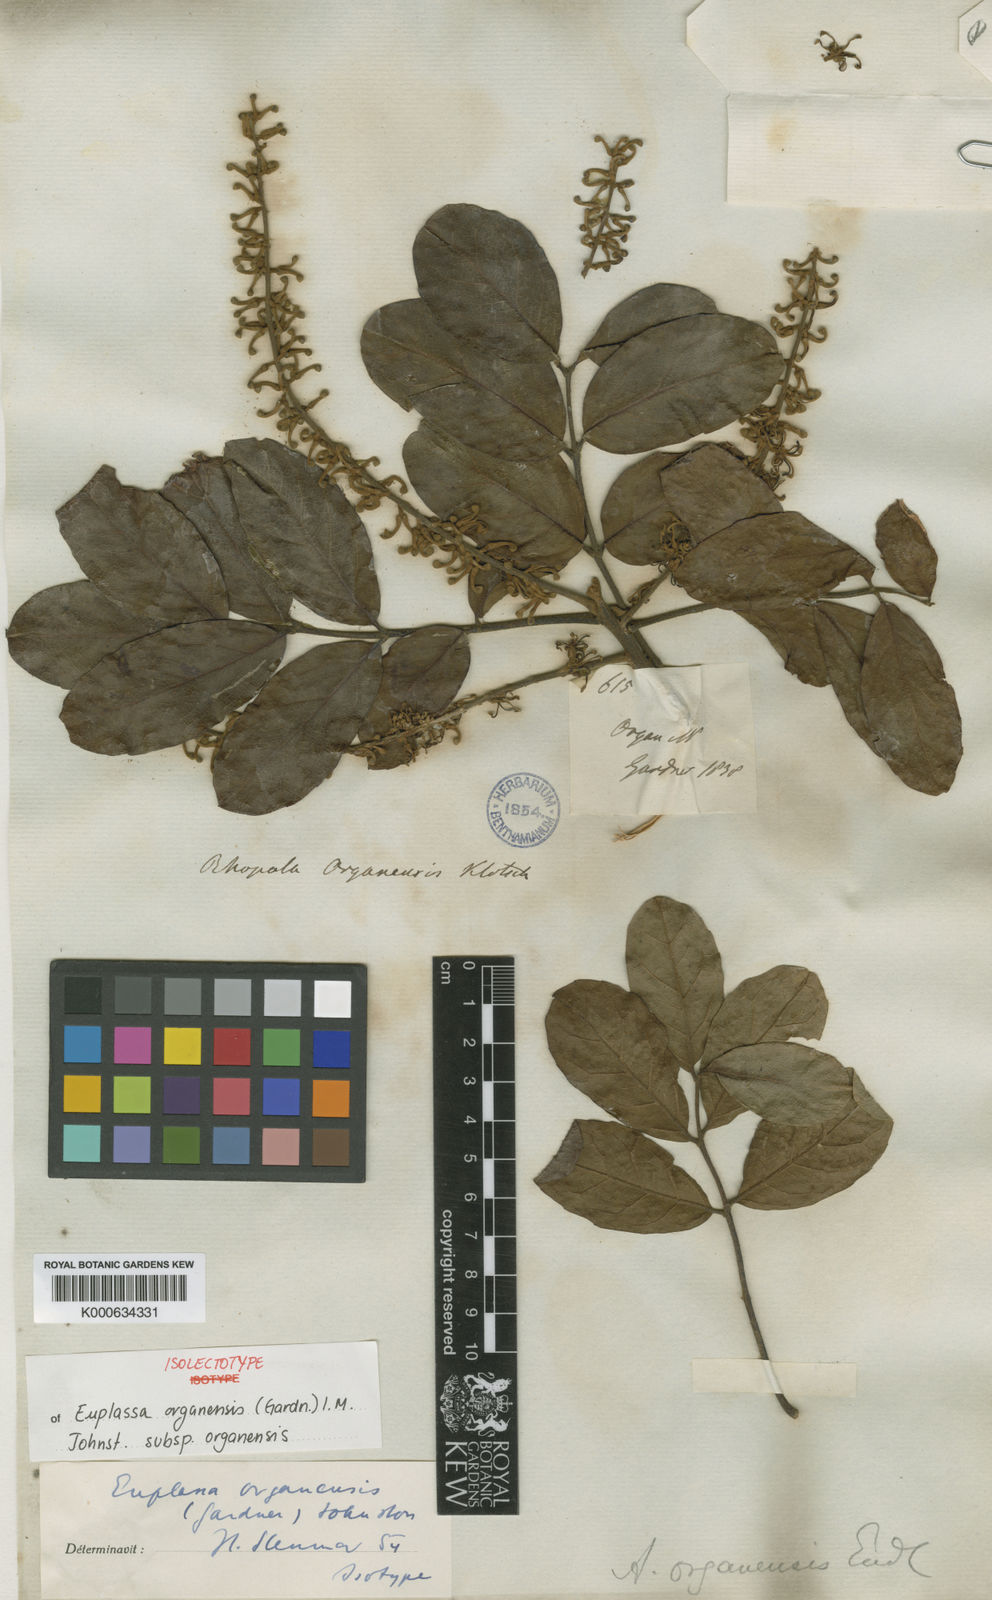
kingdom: Plantae
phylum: Tracheophyta
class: Magnoliopsida
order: Proteales
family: Proteaceae
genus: Euplassa
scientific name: Euplassa organensis
